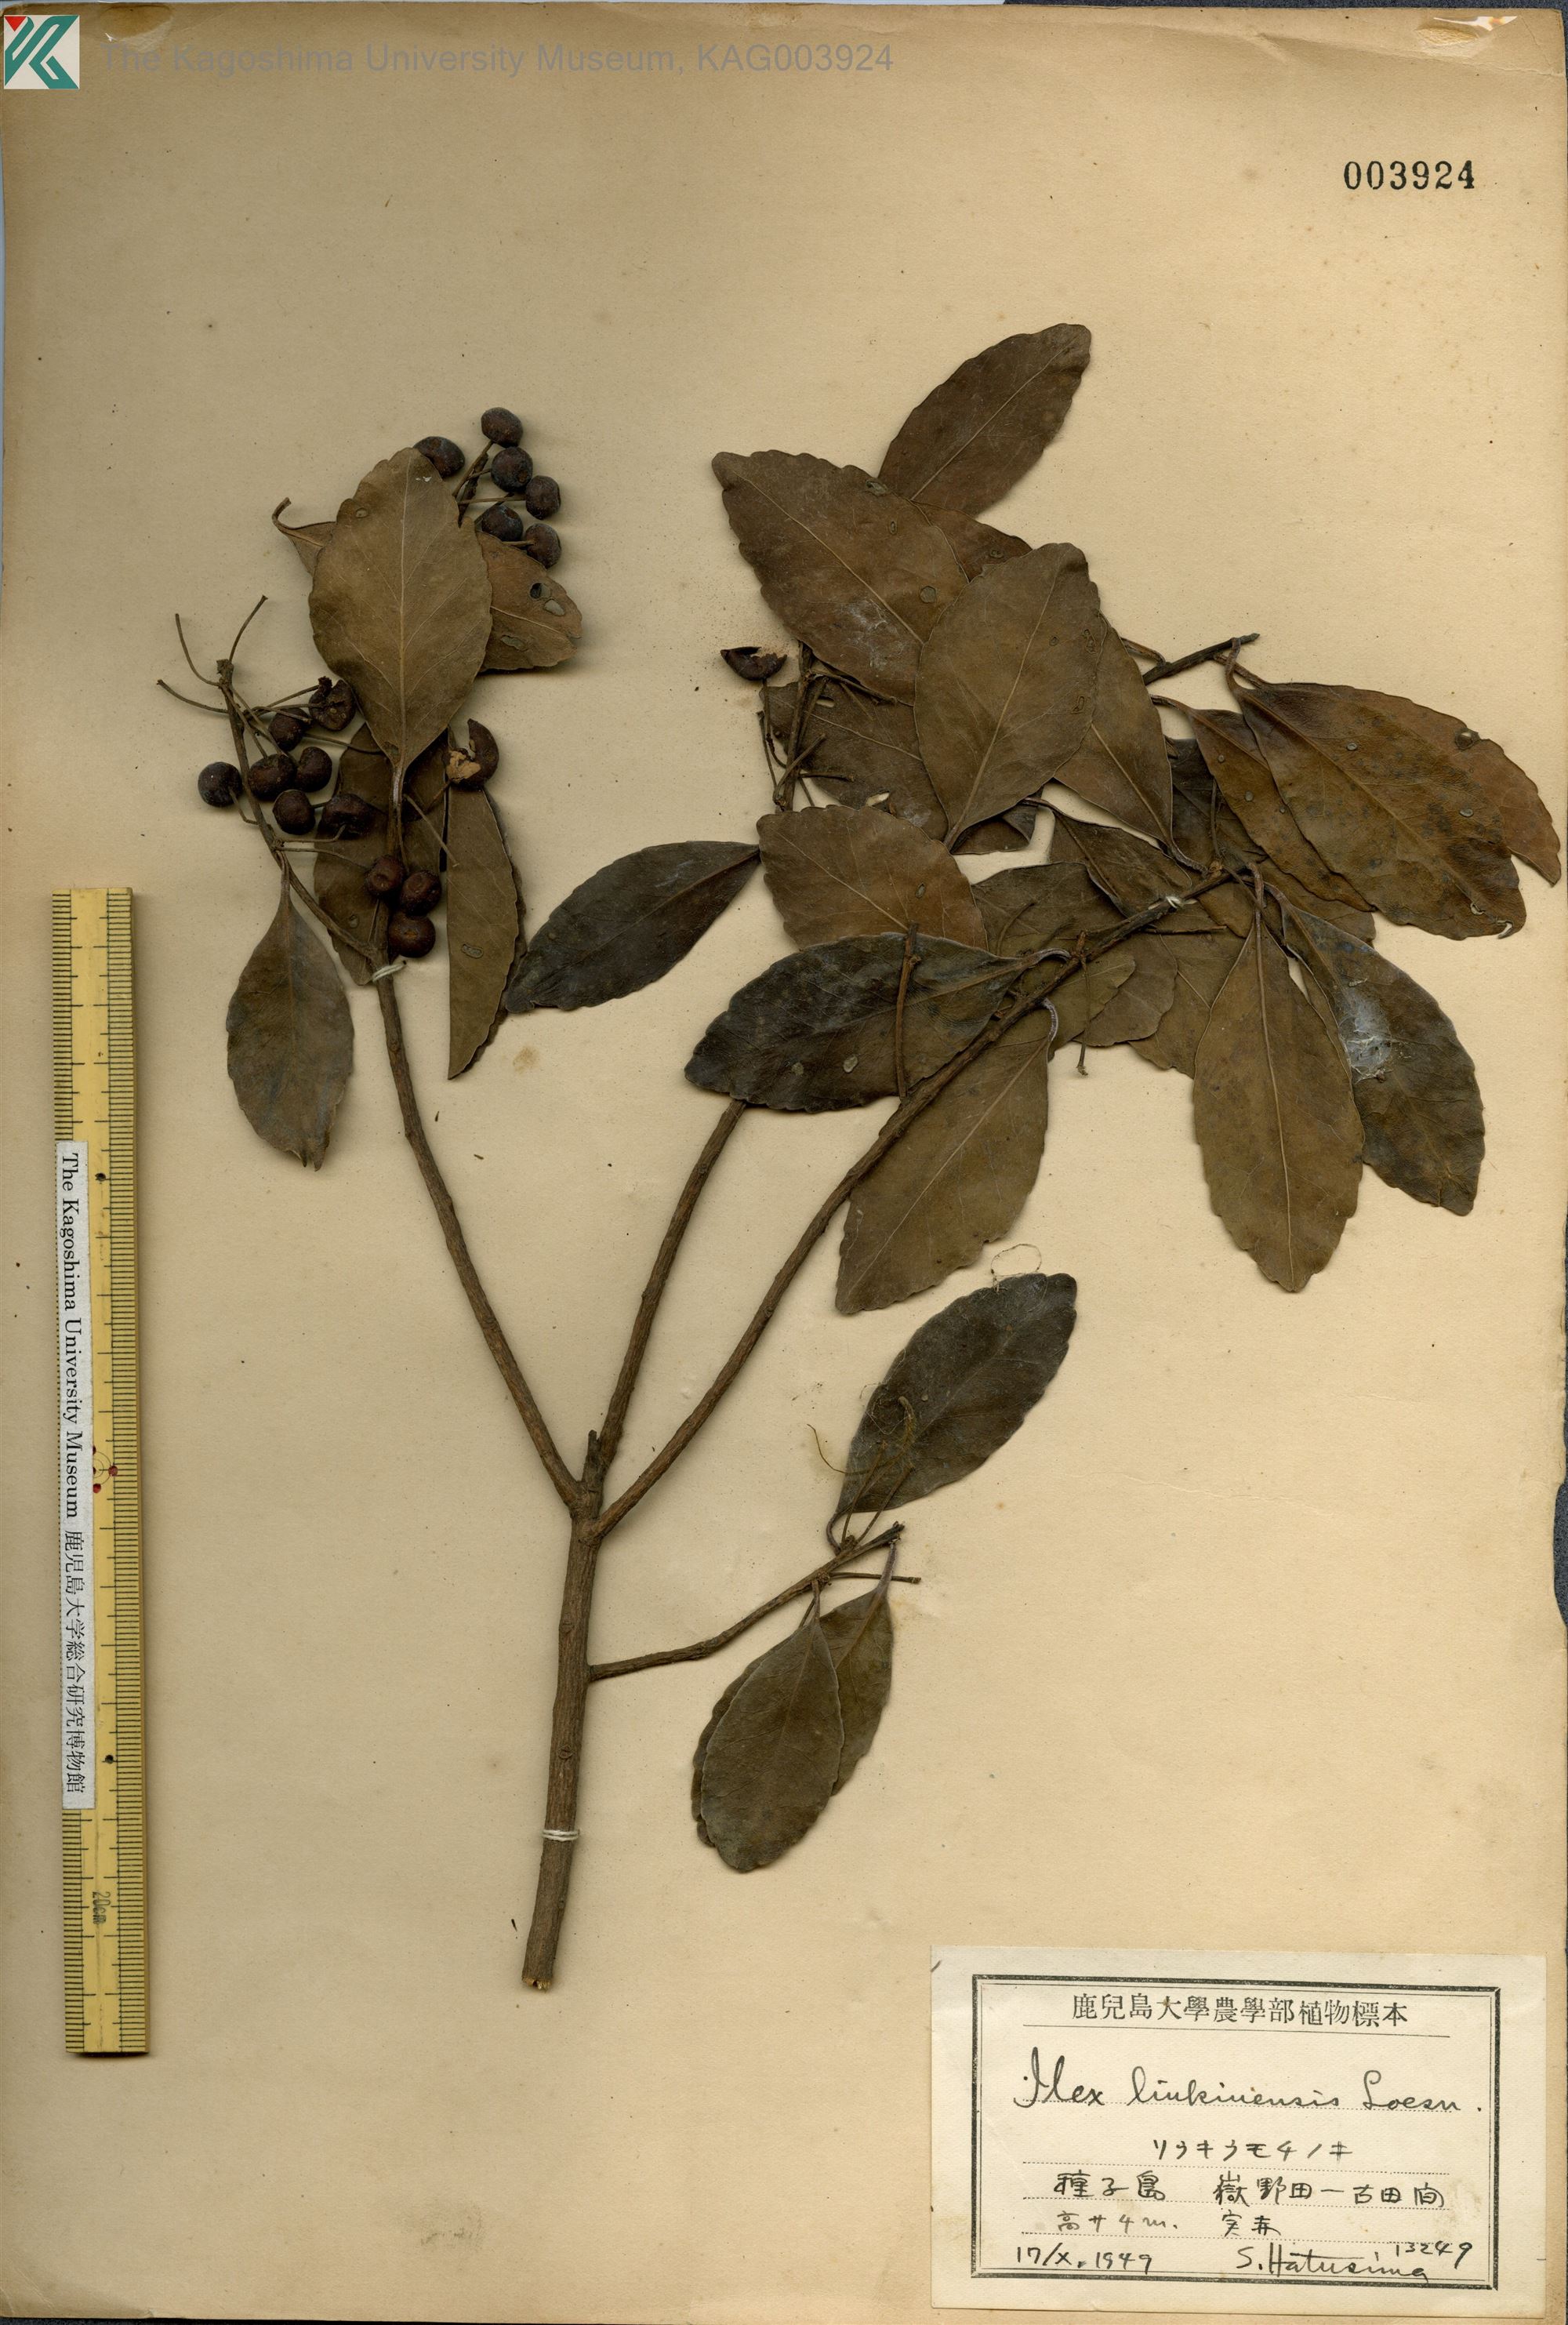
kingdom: Plantae
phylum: Tracheophyta
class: Magnoliopsida
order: Aquifoliales
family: Aquifoliaceae
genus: Ilex
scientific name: Ilex liukiuensis
